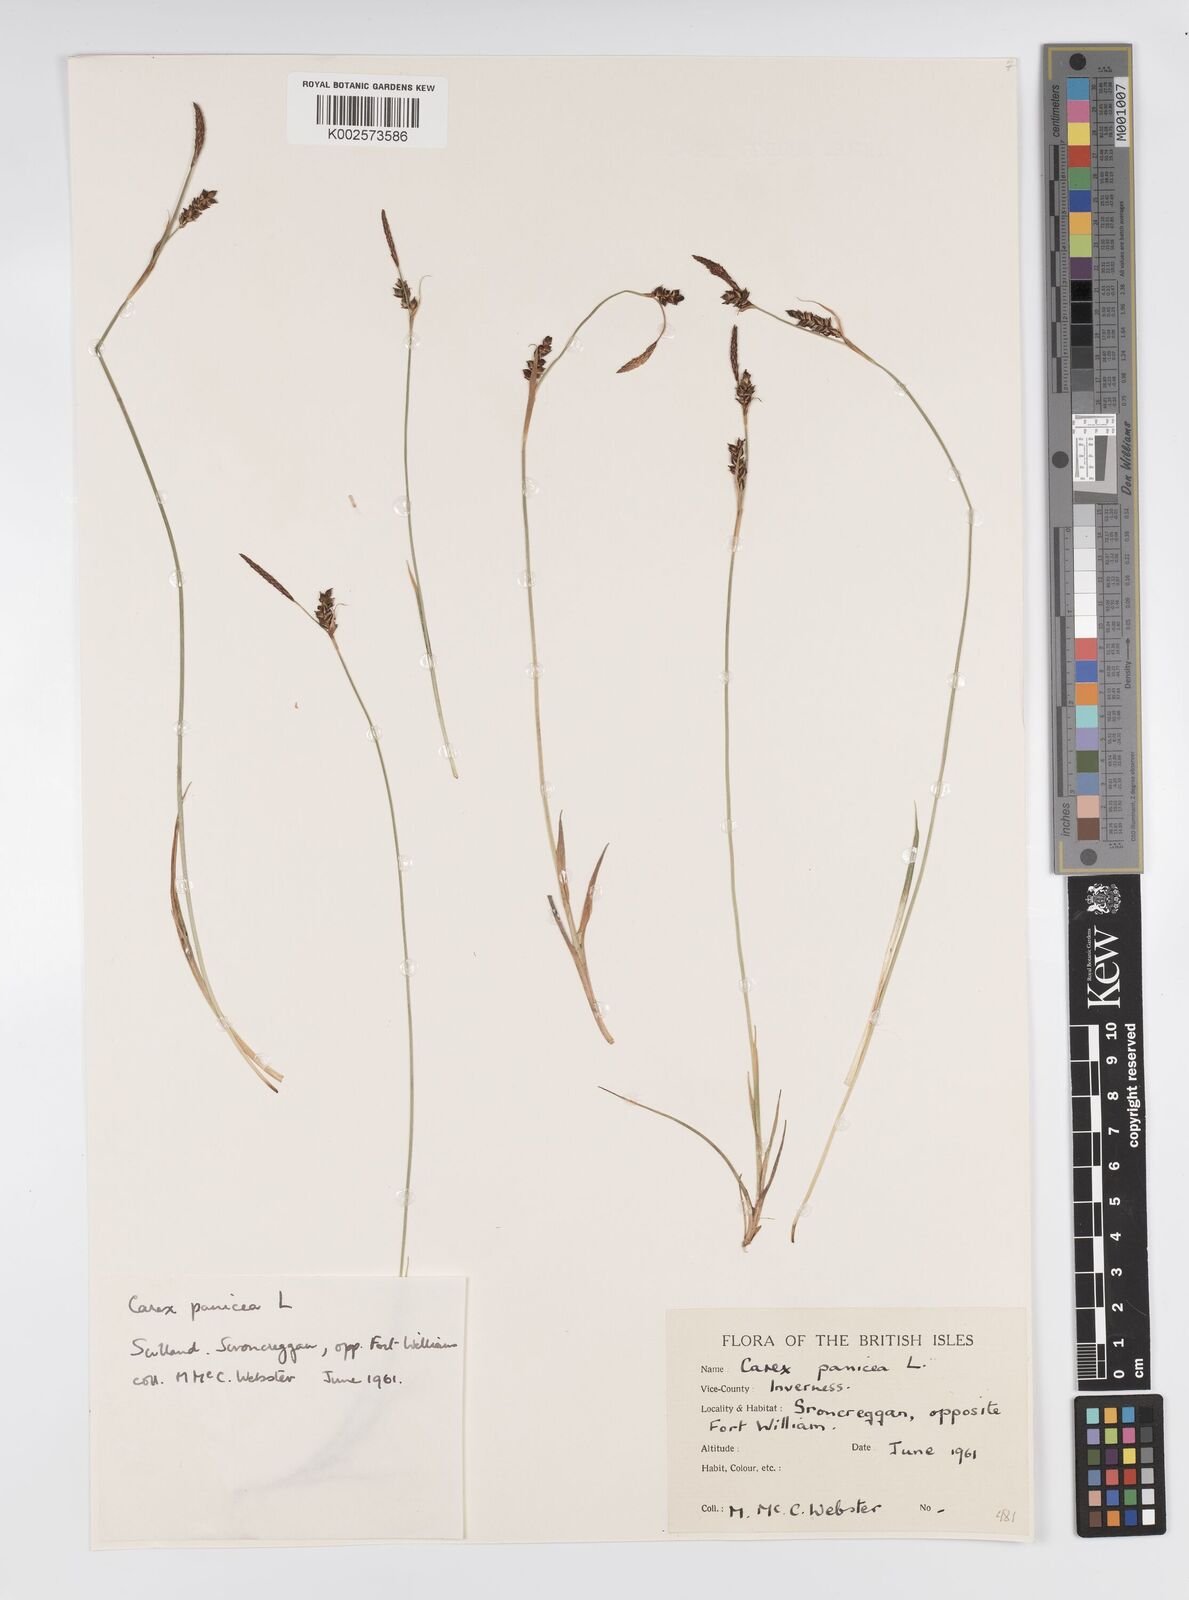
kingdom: Plantae
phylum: Tracheophyta
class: Liliopsida
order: Poales
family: Cyperaceae
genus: Carex
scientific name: Carex panicea
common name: Carnation sedge
